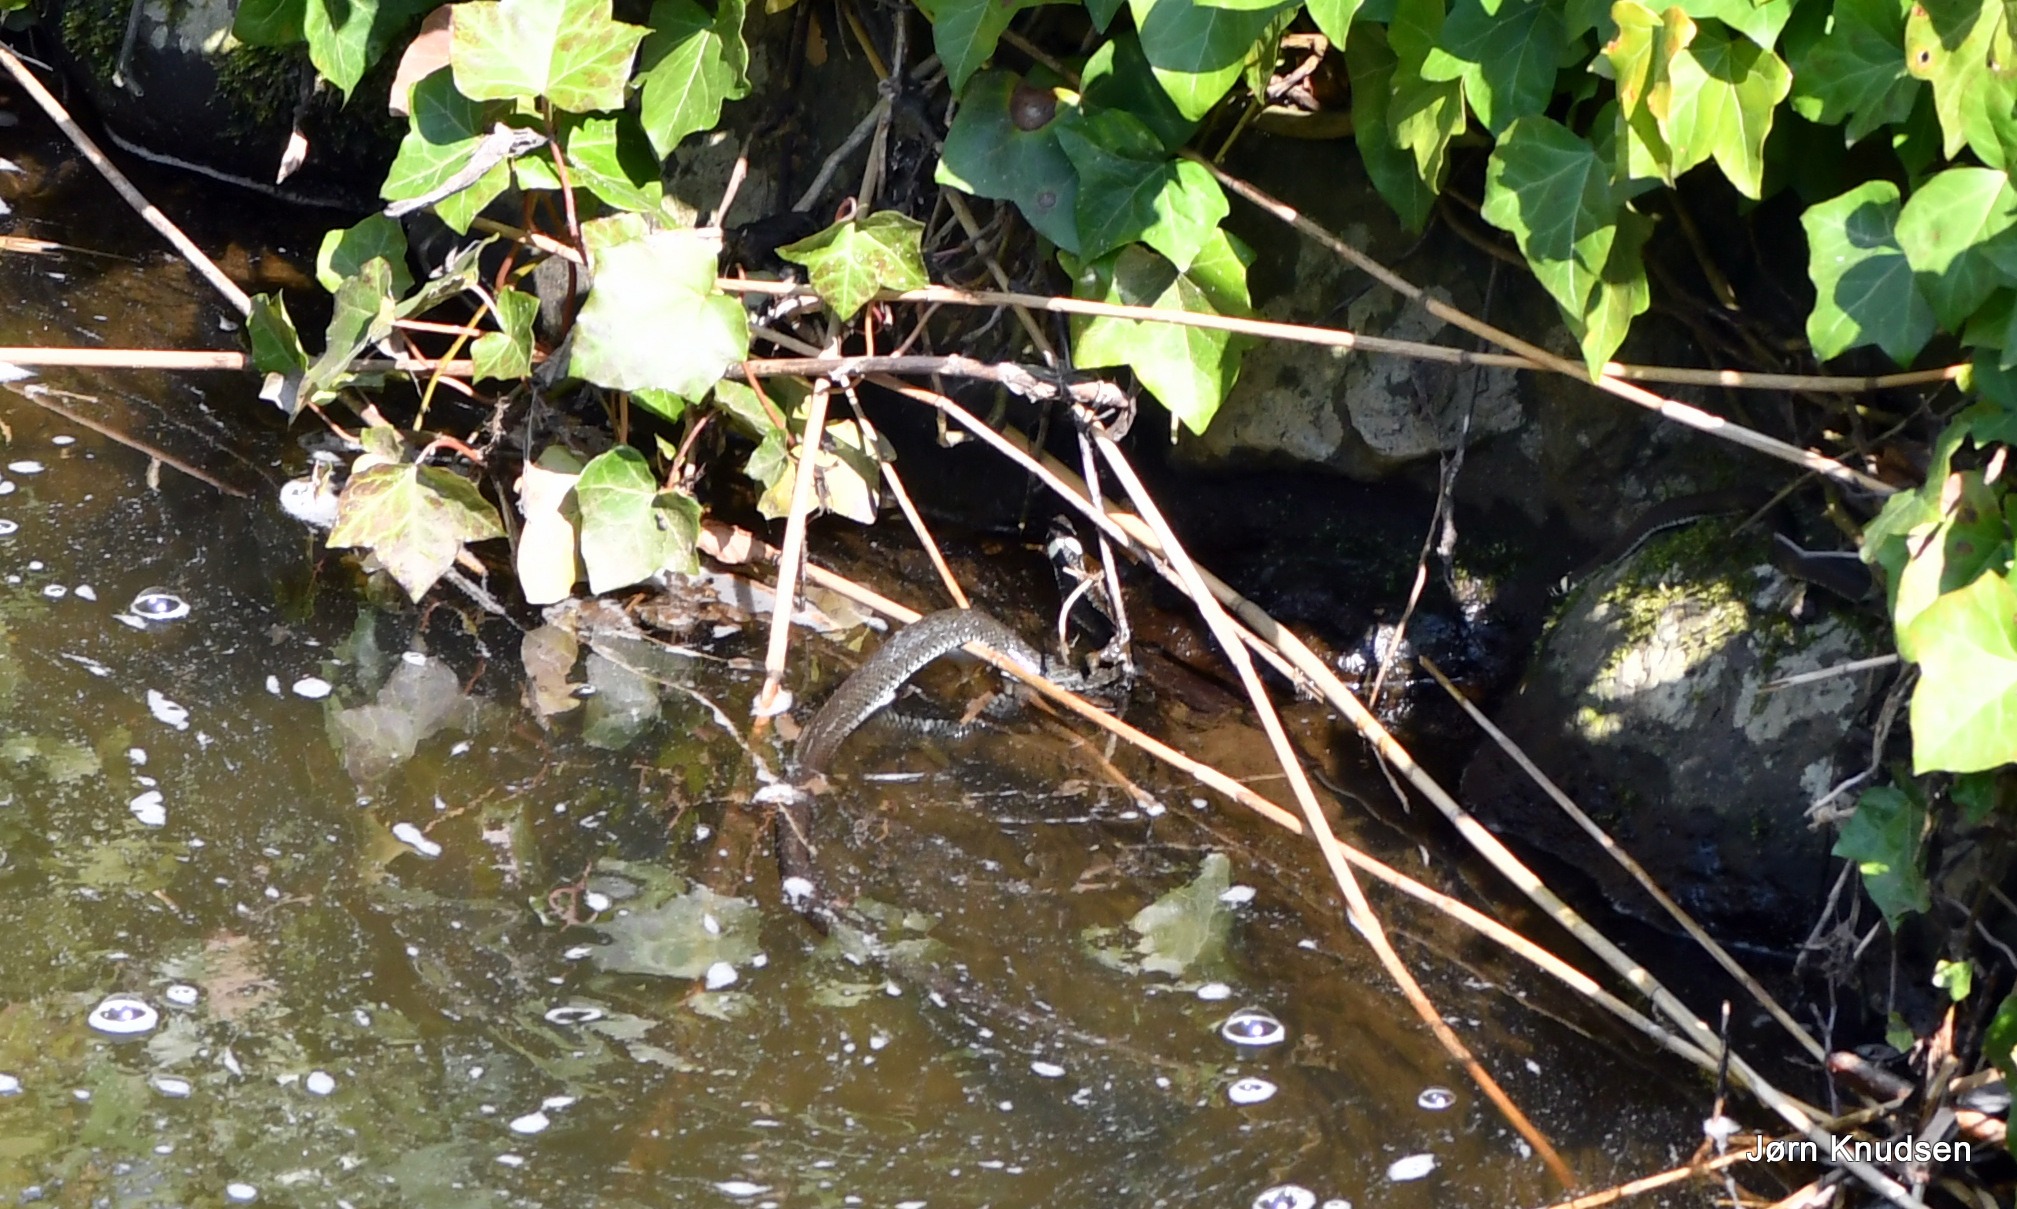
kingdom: Animalia
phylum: Chordata
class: Squamata
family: Colubridae
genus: Natrix
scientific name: Natrix natrix
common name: Snog
